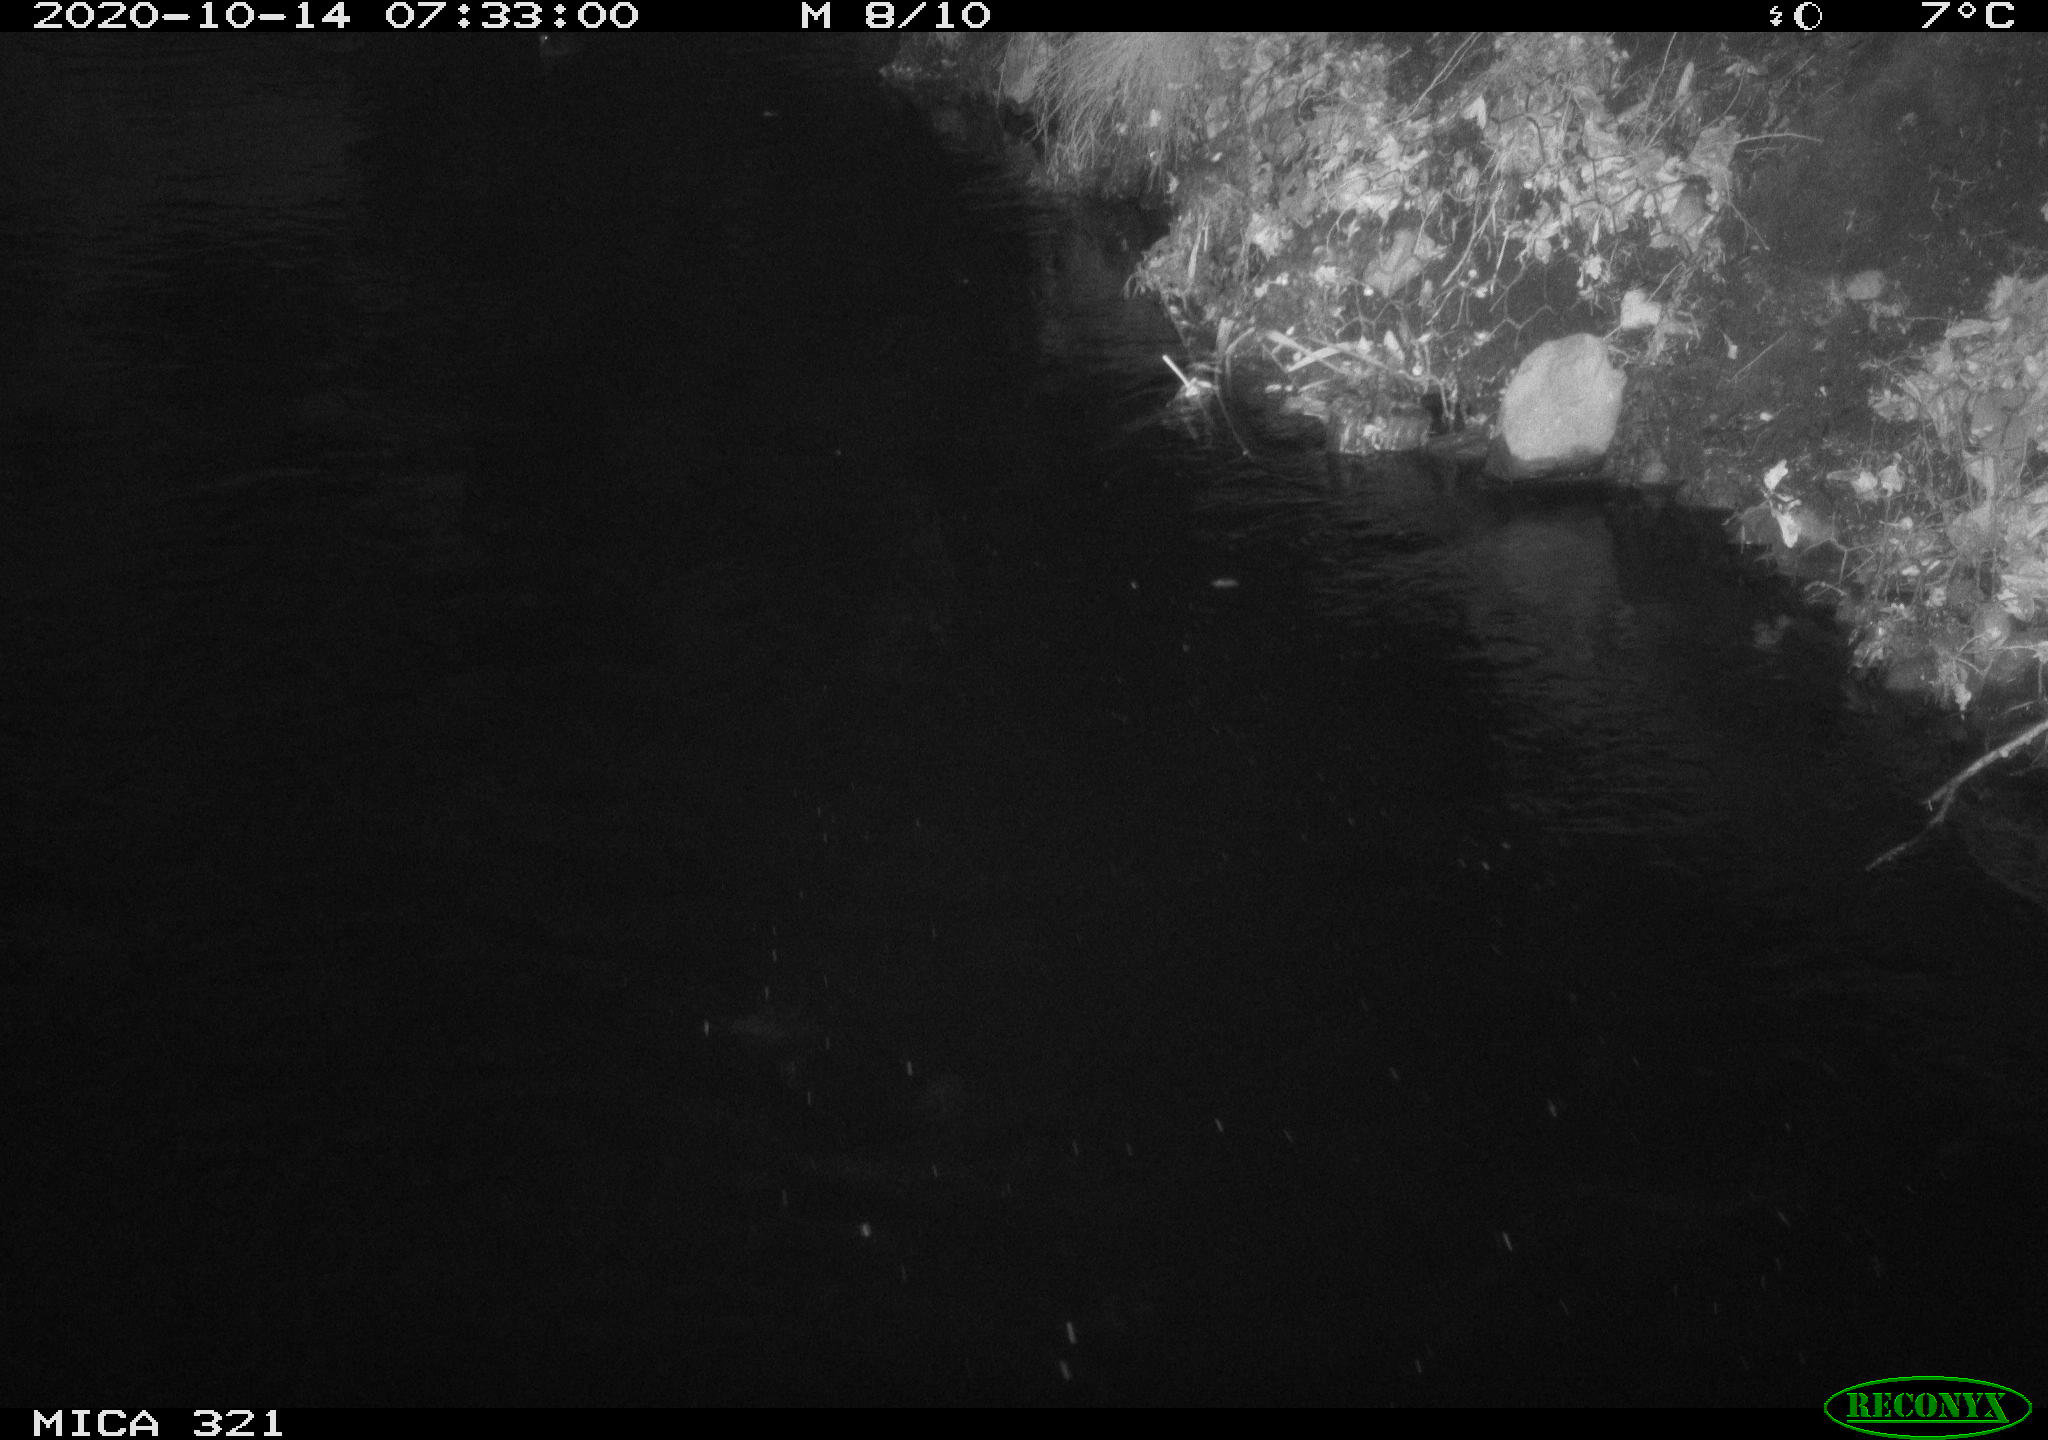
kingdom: Animalia
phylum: Chordata
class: Aves
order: Anseriformes
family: Anatidae
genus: Anas
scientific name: Anas platyrhynchos
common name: Mallard
